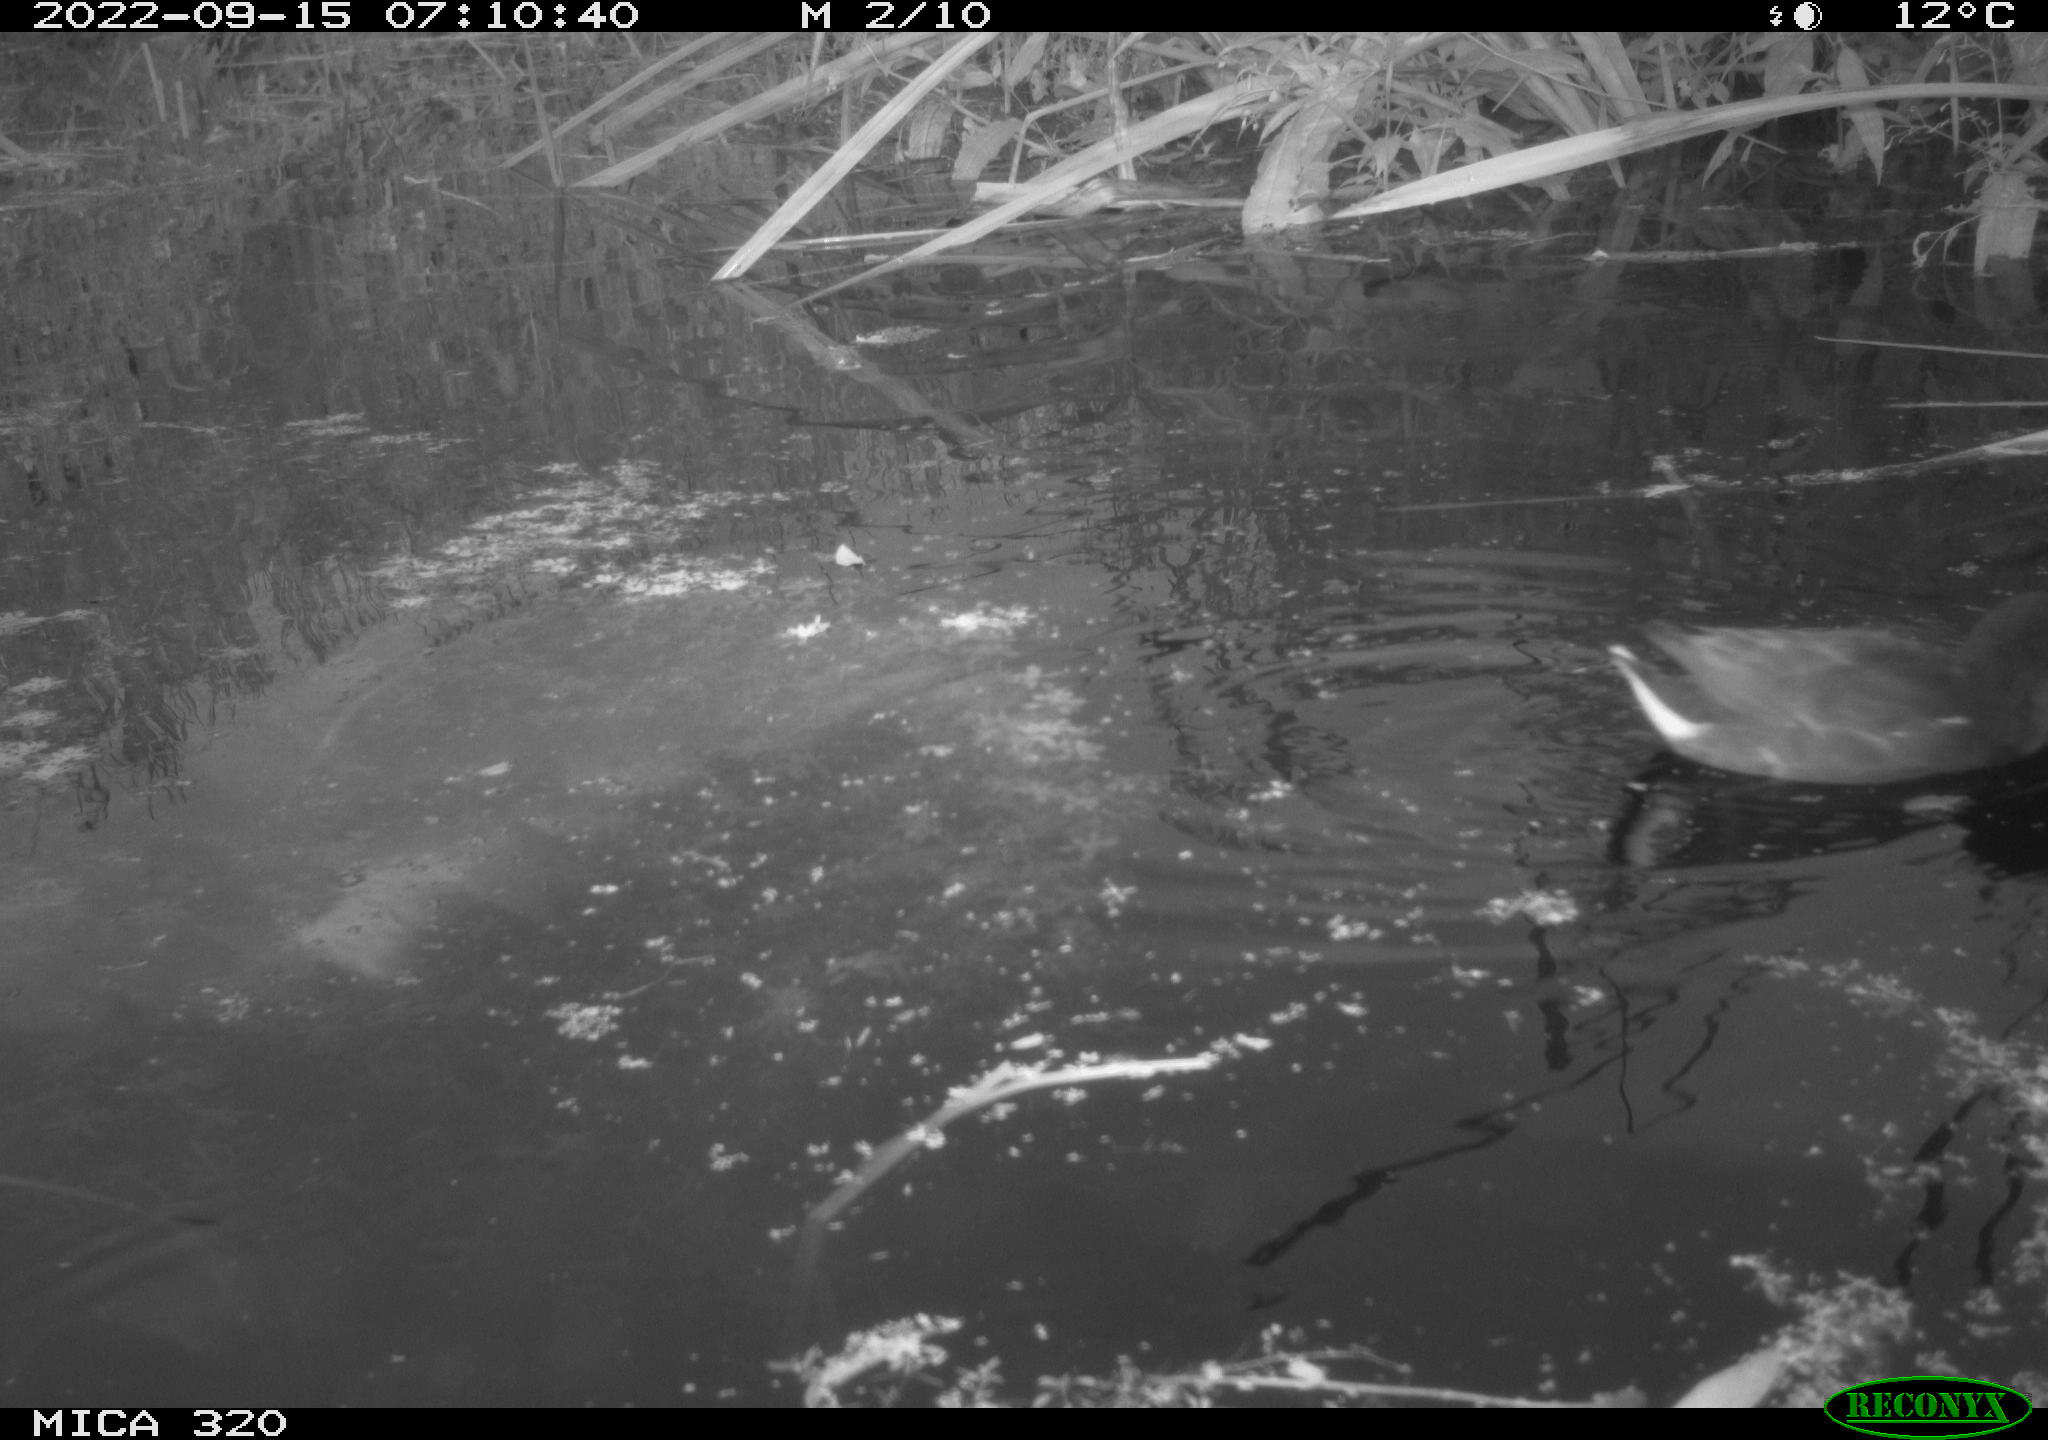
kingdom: Animalia
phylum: Chordata
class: Aves
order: Gruiformes
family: Rallidae
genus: Gallinula
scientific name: Gallinula chloropus
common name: Common moorhen
